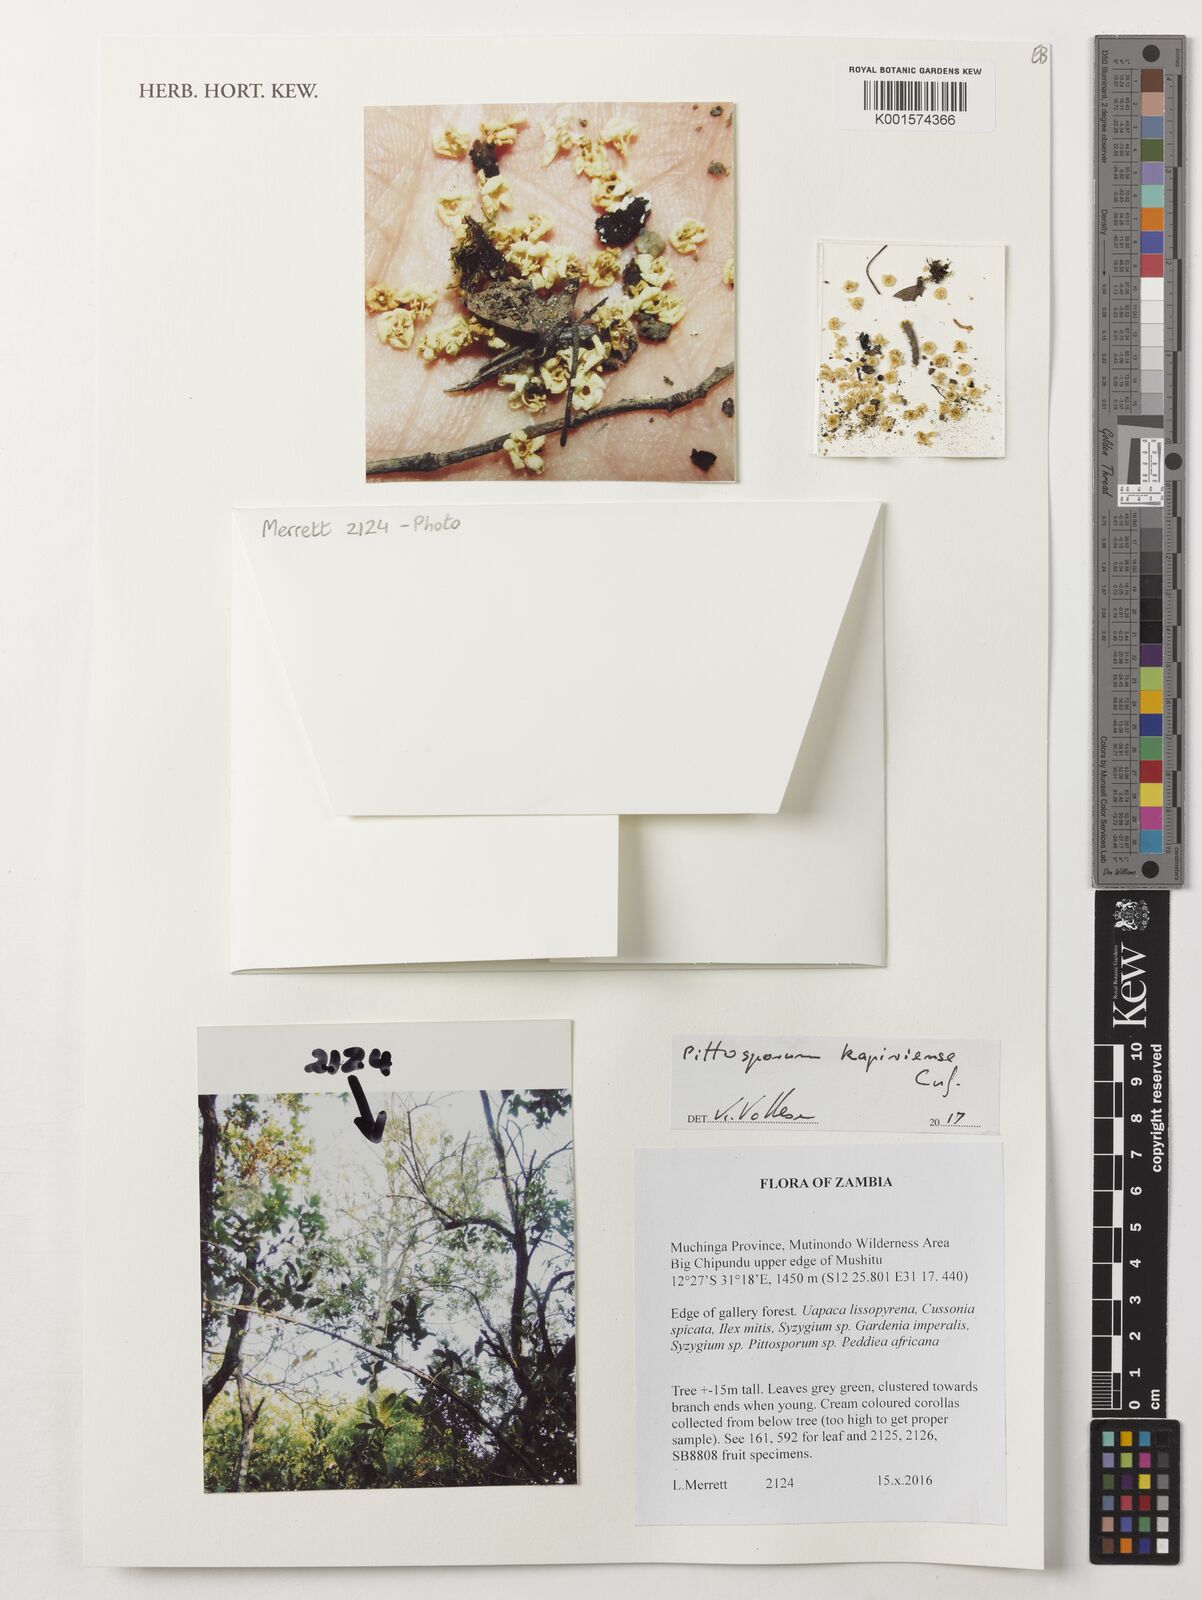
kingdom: Plantae
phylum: Tracheophyta
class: Magnoliopsida
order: Apiales
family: Pittosporaceae
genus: Pittosporum
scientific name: Pittosporum viridiflorum
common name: Cape cheesewood
